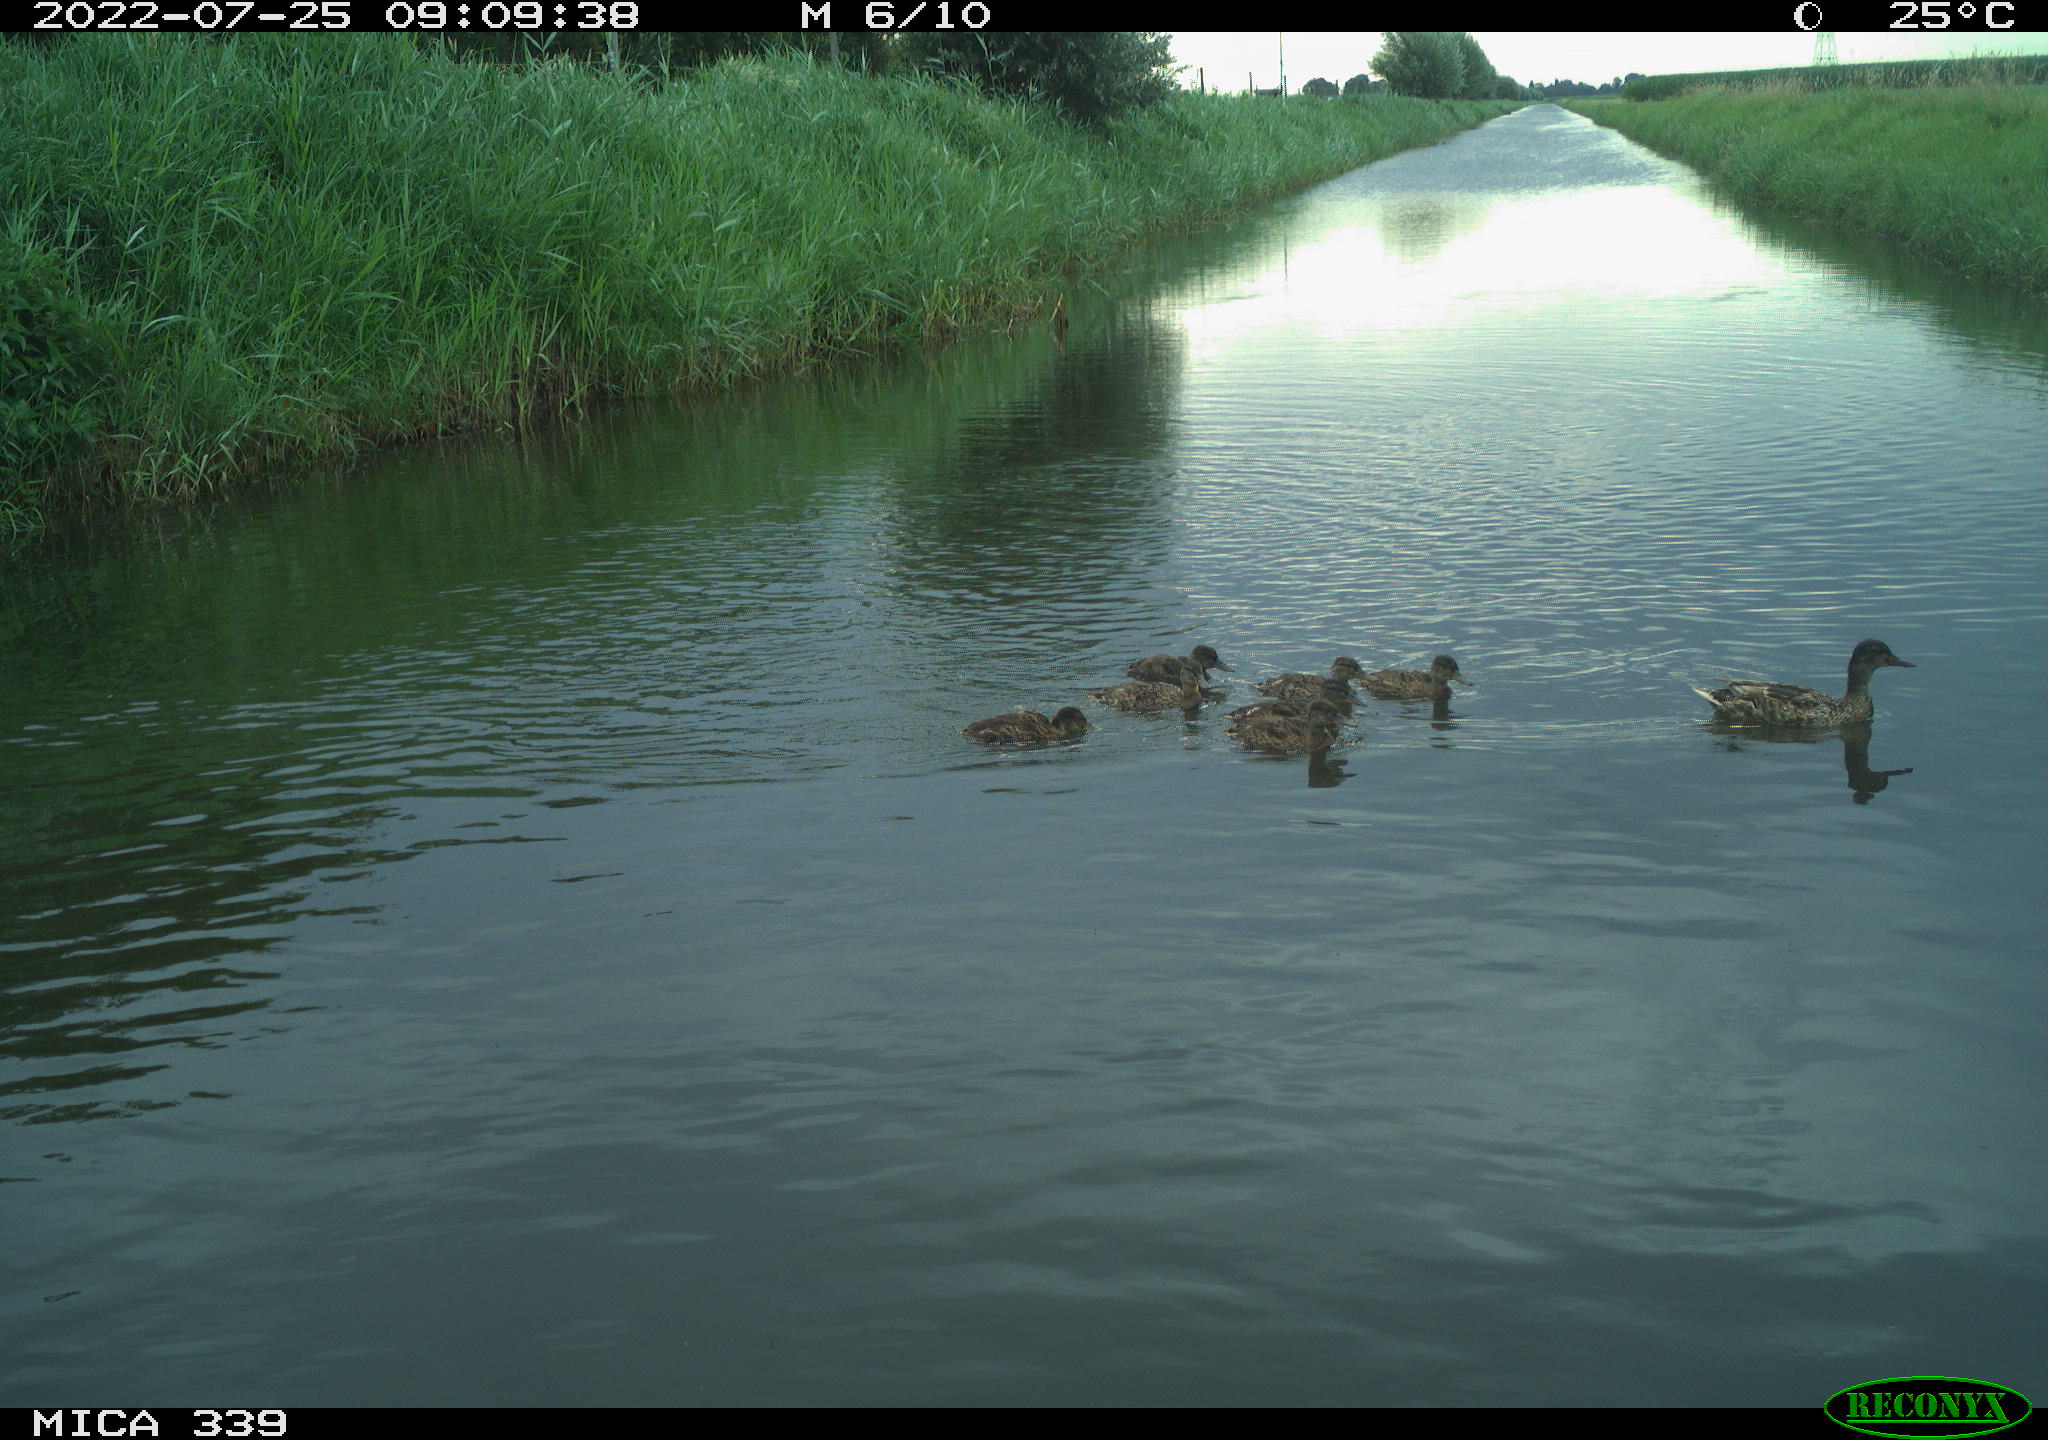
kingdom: Animalia
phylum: Chordata
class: Aves
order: Anseriformes
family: Anatidae
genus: Anas
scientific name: Anas platyrhynchos
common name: Mallard
